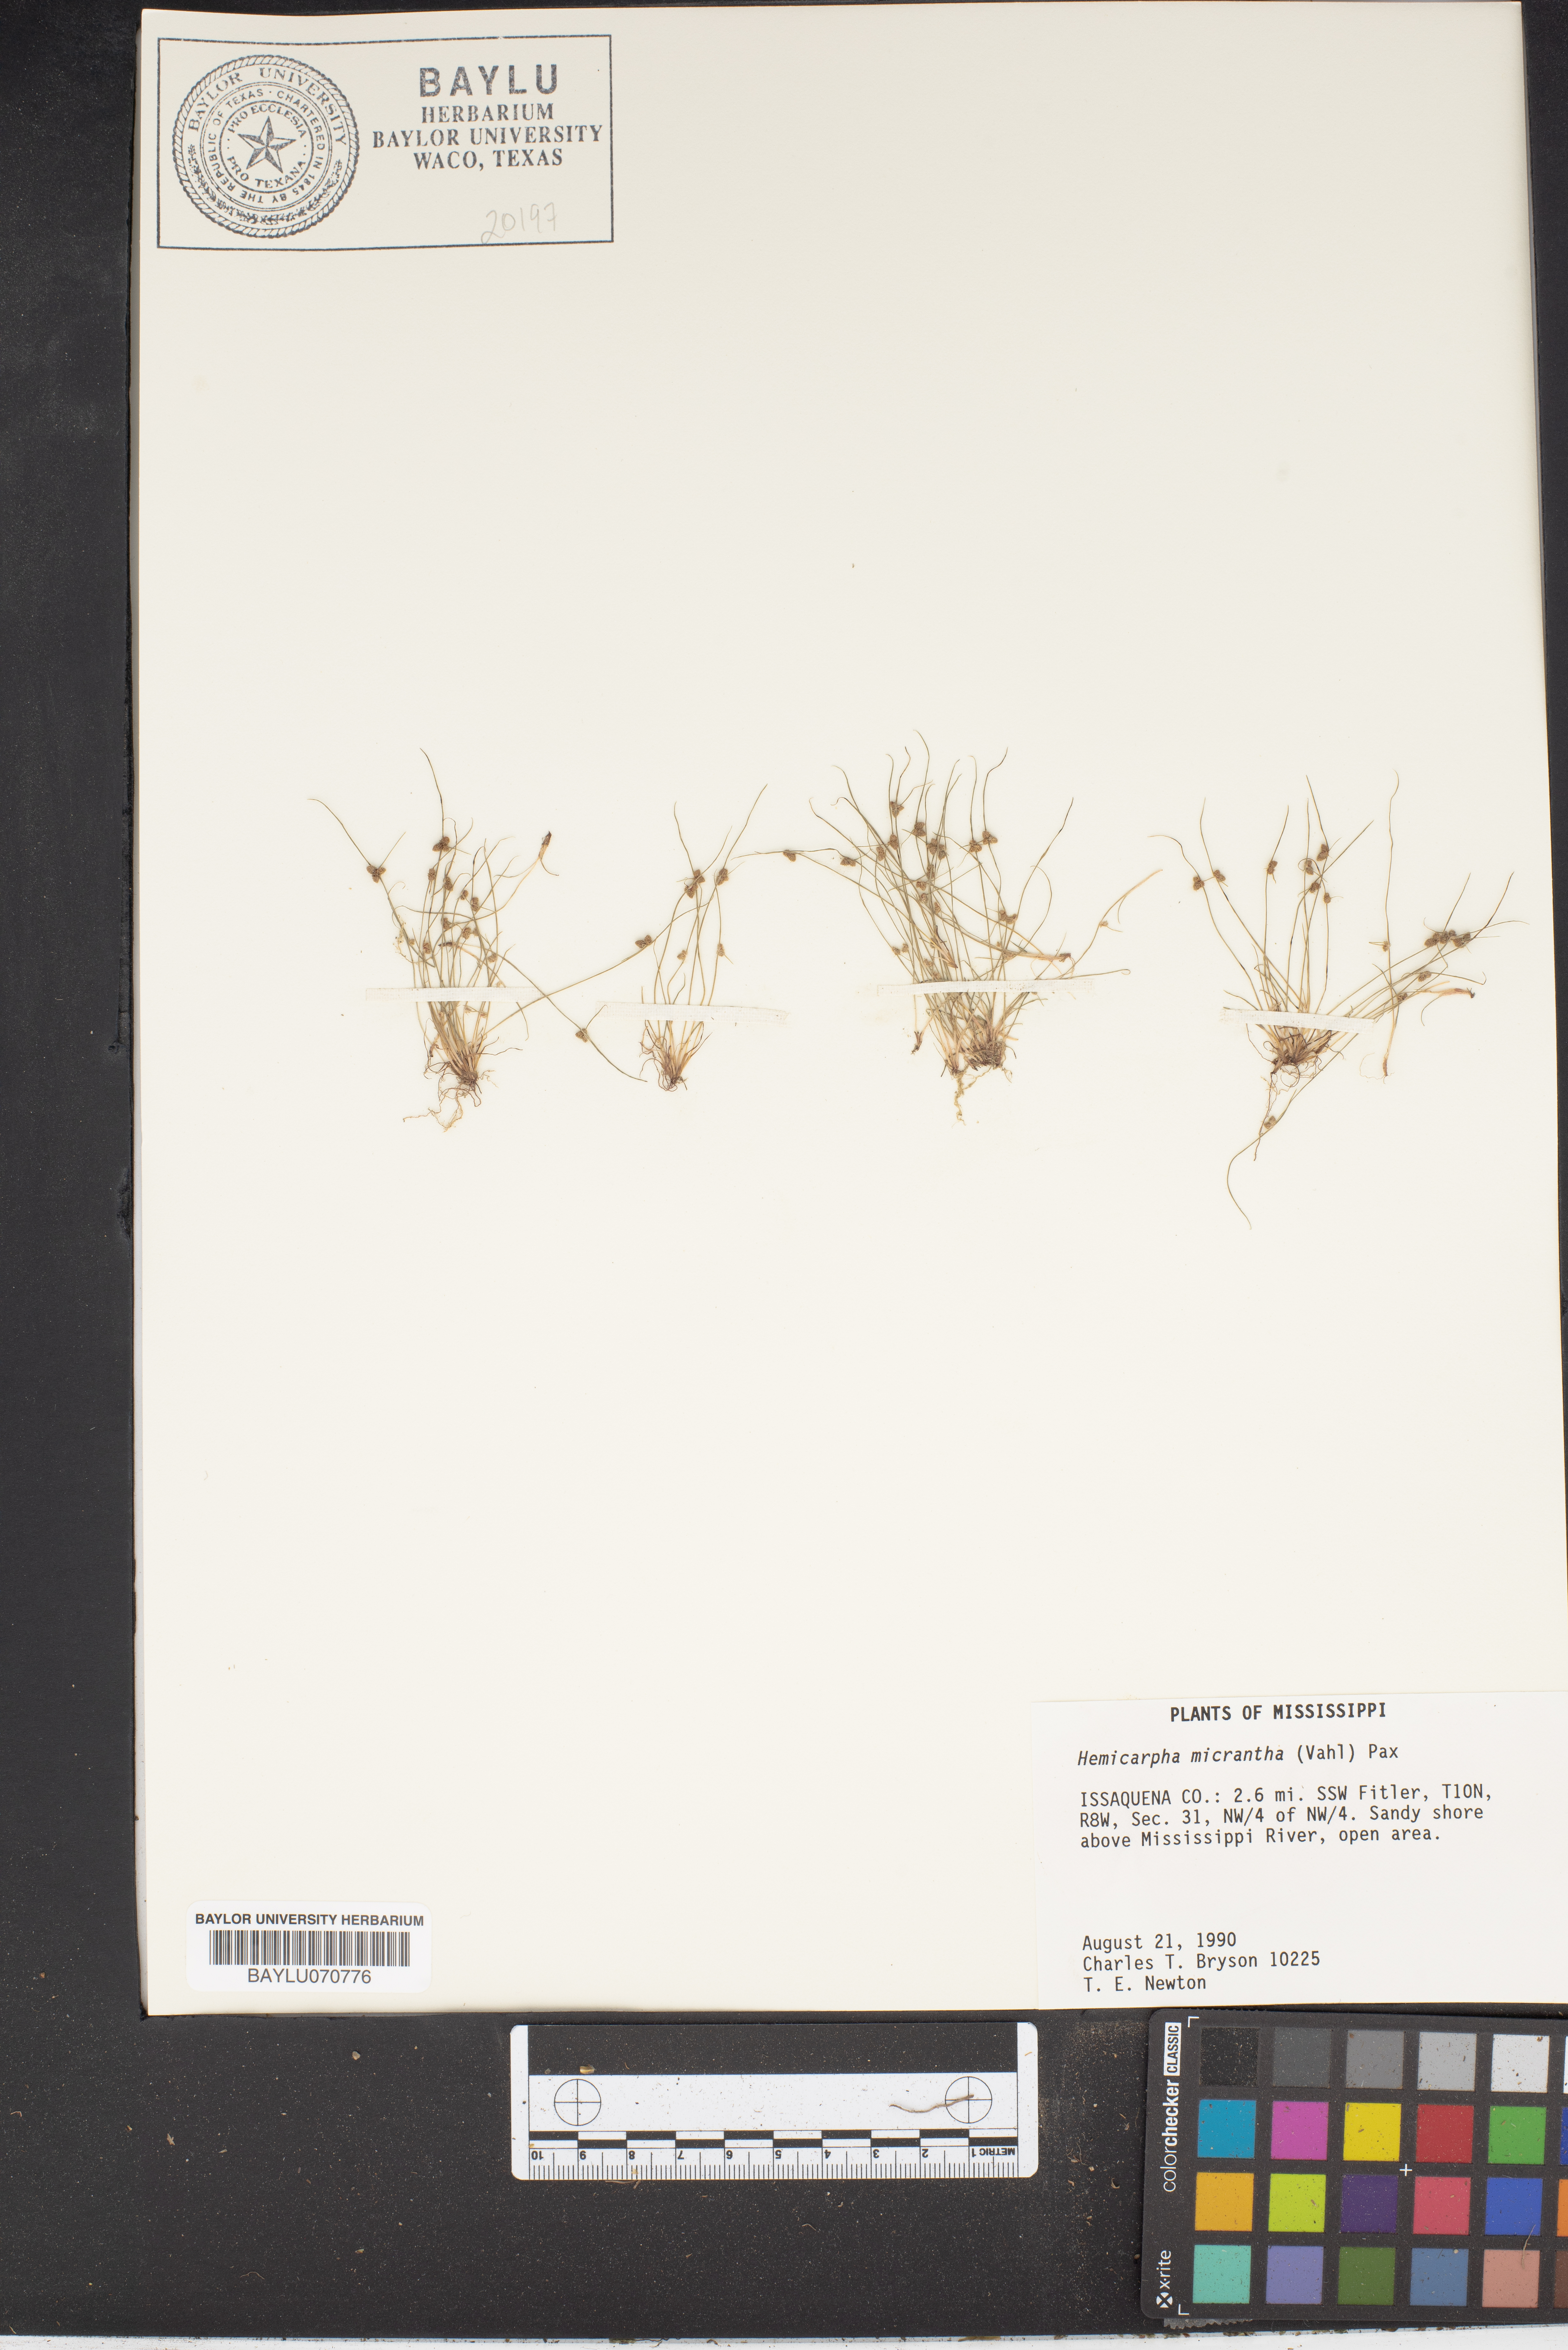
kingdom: Plantae
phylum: Tracheophyta
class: Liliopsida
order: Poales
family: Cyperaceae
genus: Cyperus
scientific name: Cyperus subsquarrosus
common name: Dwarf bulrush
